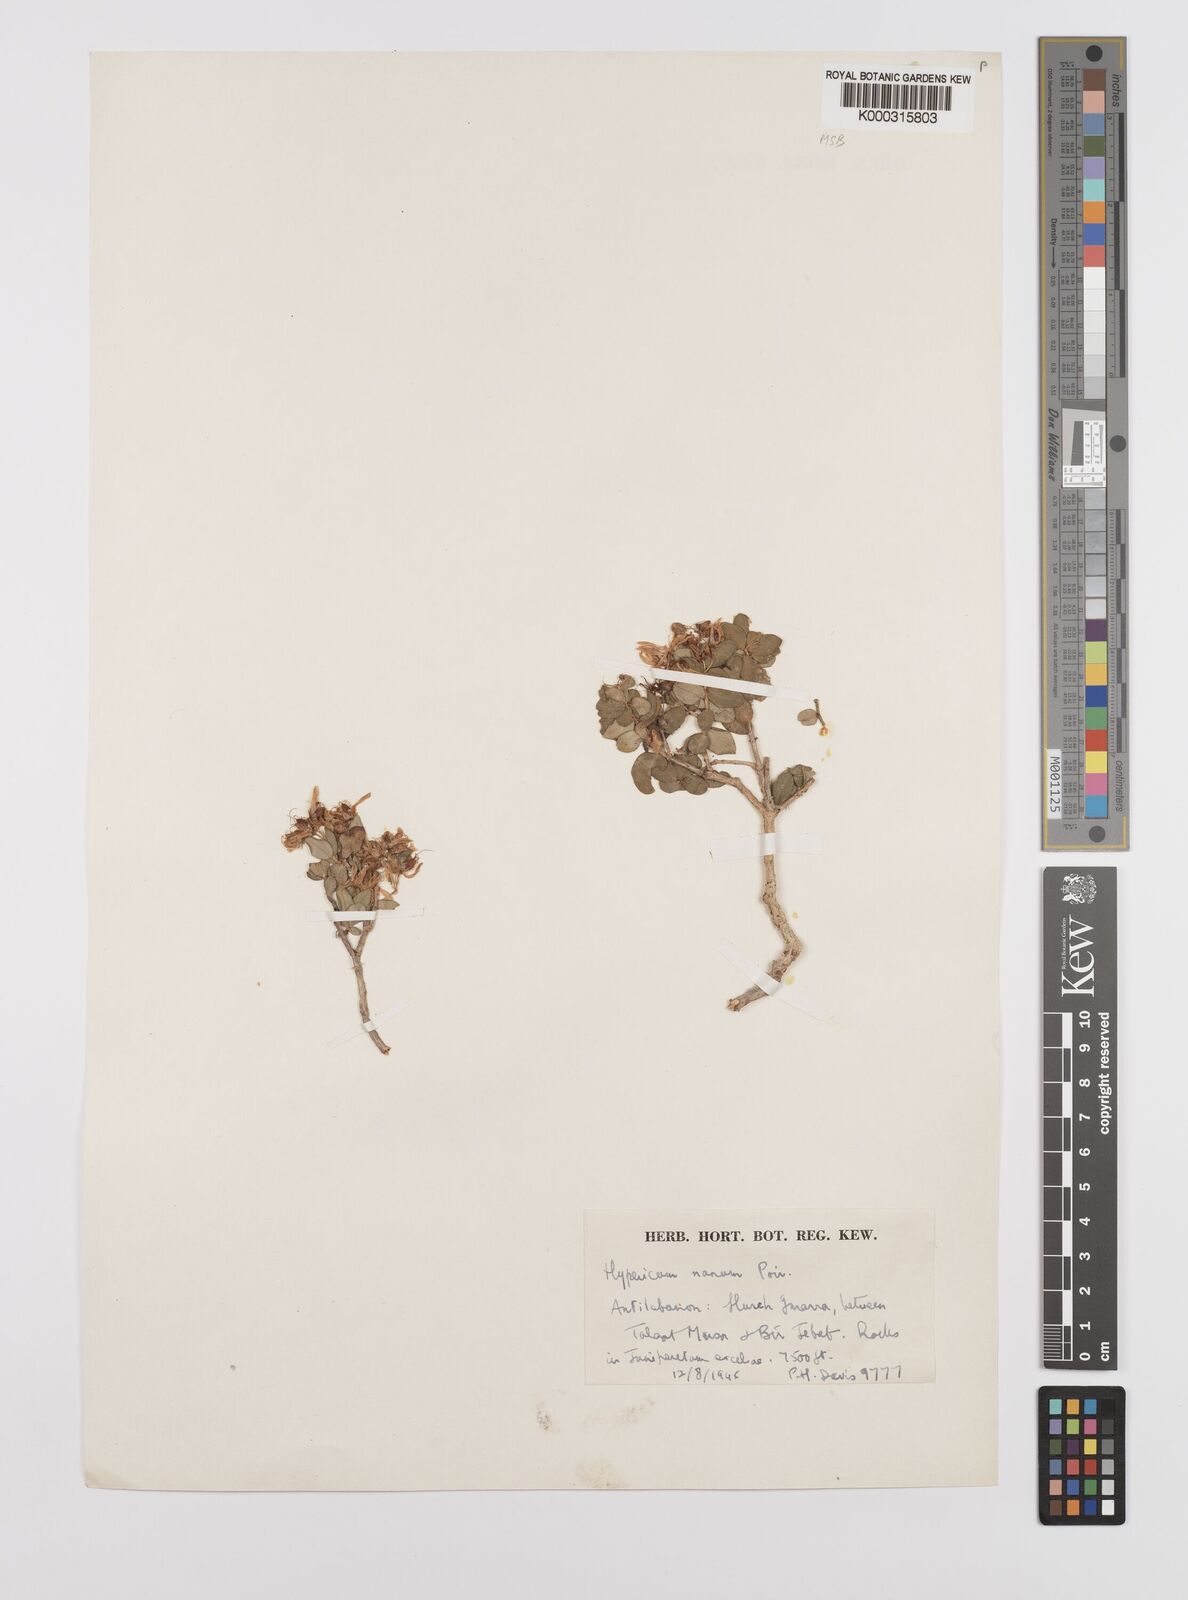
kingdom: Plantae
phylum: Tracheophyta
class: Magnoliopsida
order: Malpighiales
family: Hypericaceae
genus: Hypericum
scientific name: Hypericum nanum
